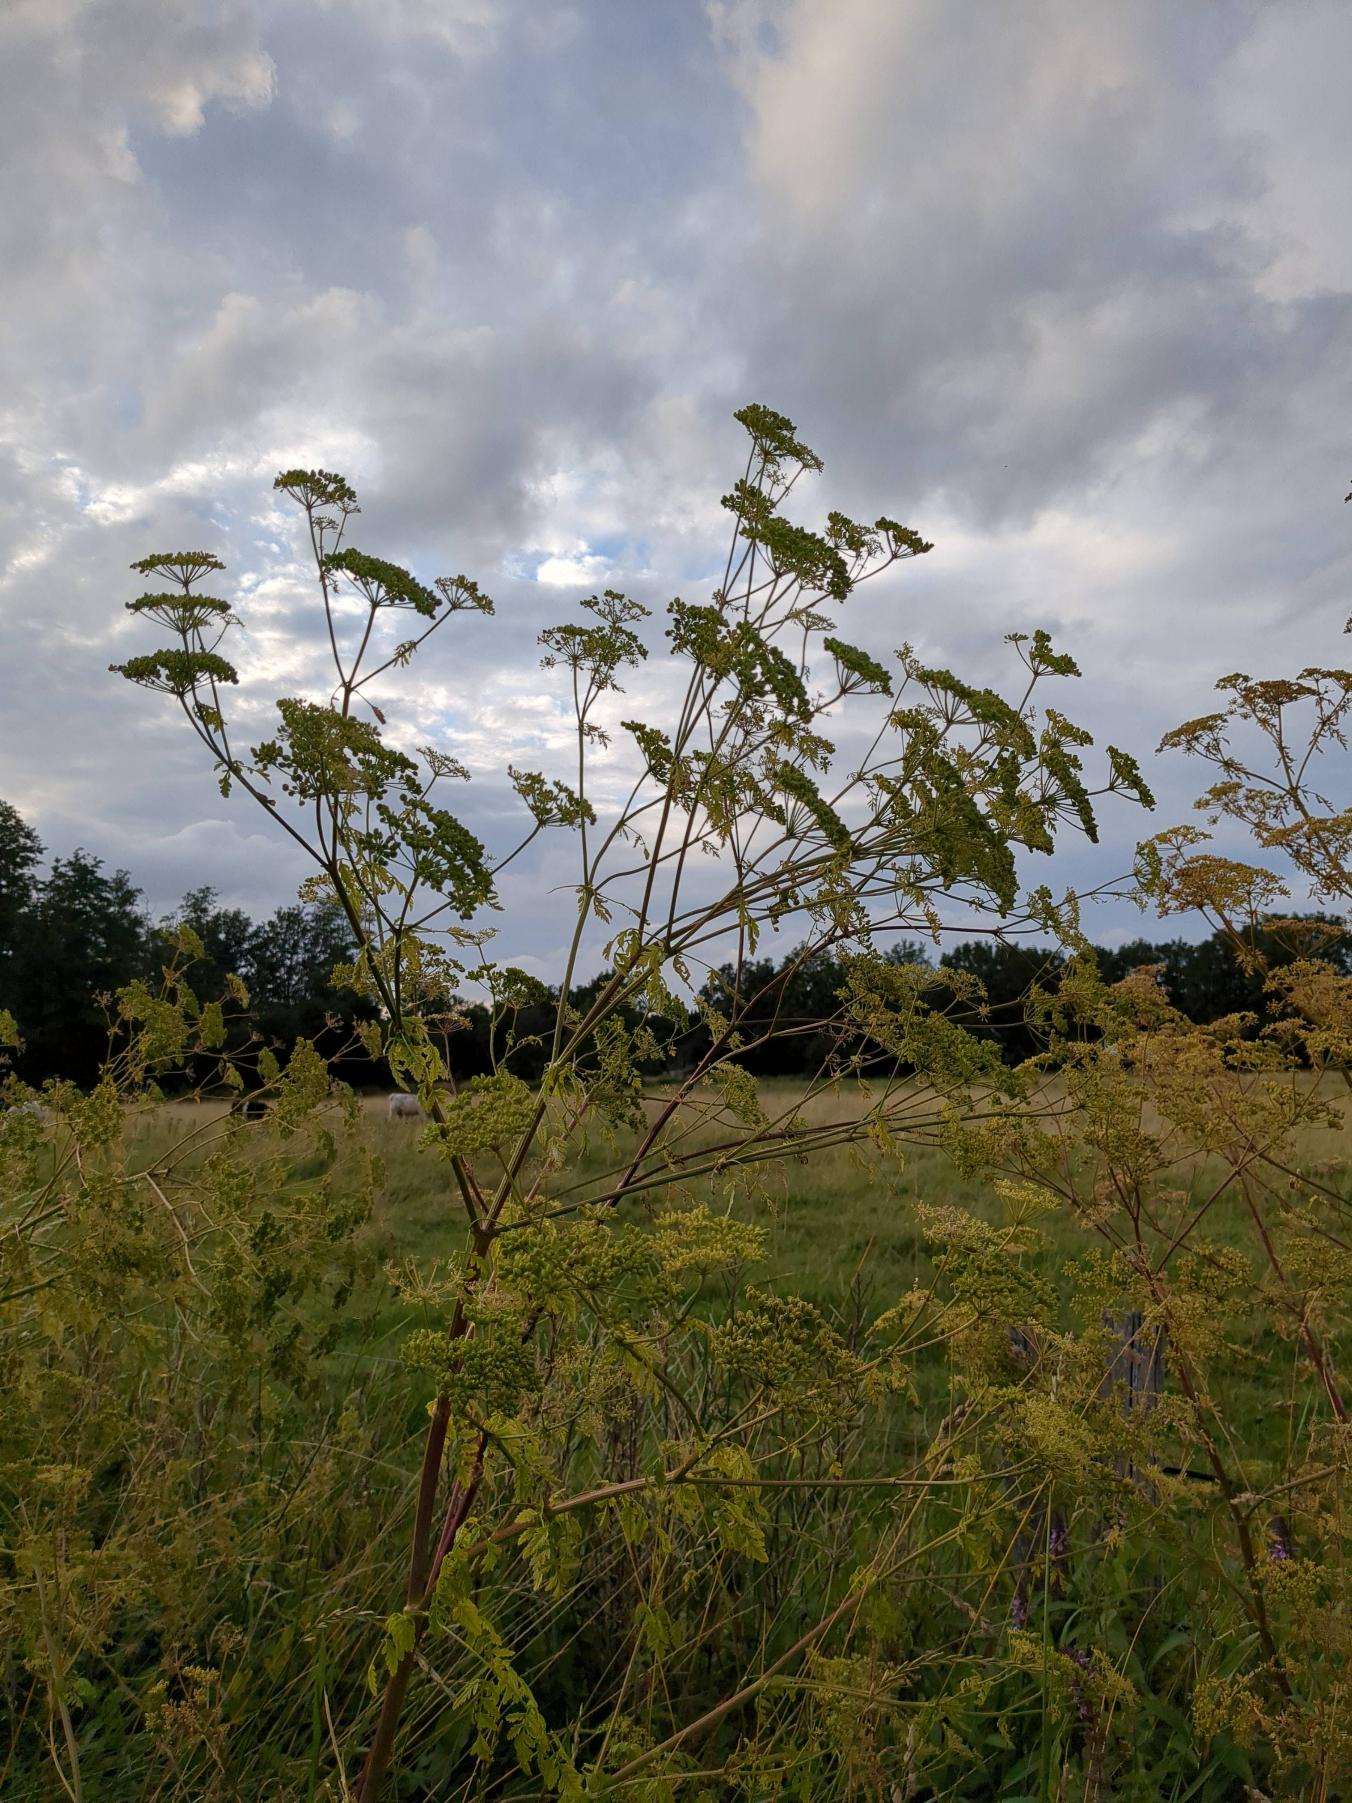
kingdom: Plantae
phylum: Tracheophyta
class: Magnoliopsida
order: Apiales
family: Apiaceae
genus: Conium
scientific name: Conium maculatum
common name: Skarntyde
